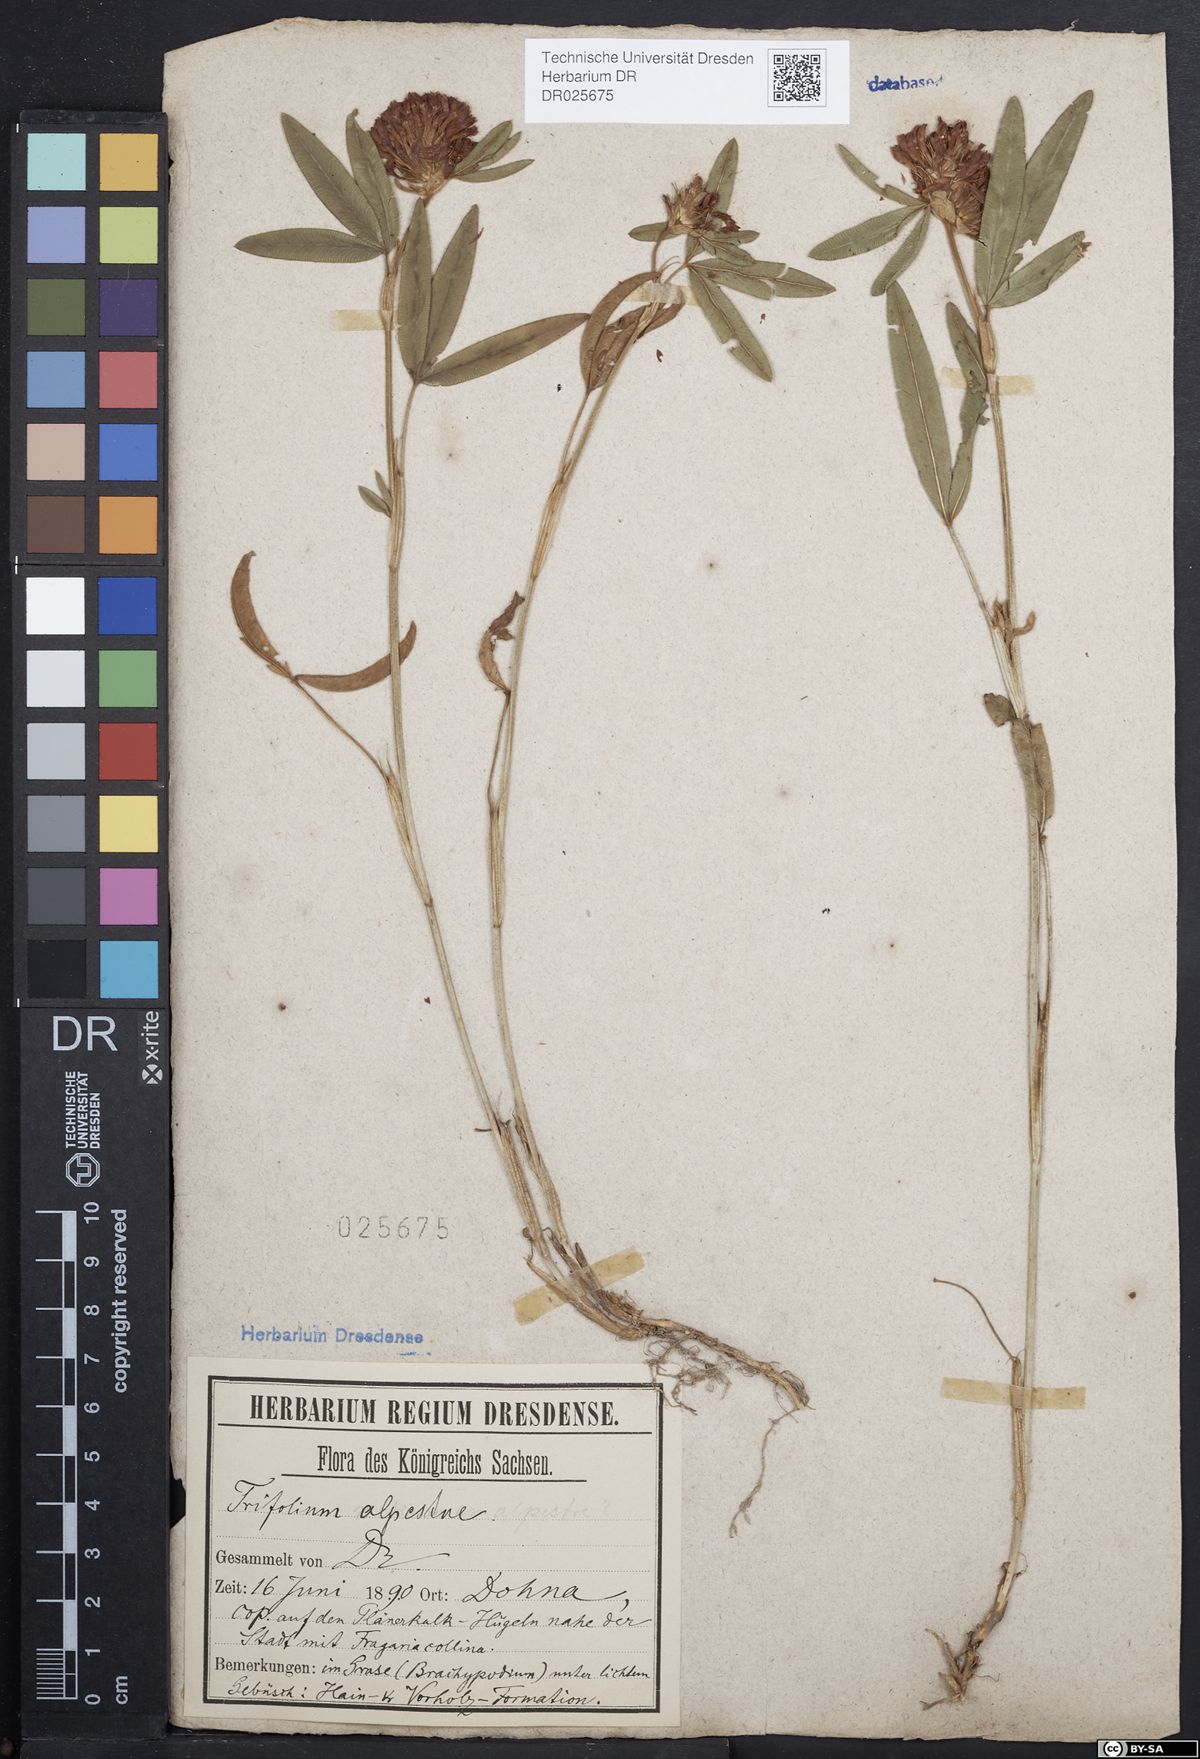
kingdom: Plantae
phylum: Tracheophyta
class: Magnoliopsida
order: Fabales
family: Fabaceae
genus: Trifolium
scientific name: Trifolium alpestre
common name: Owl-head clover
